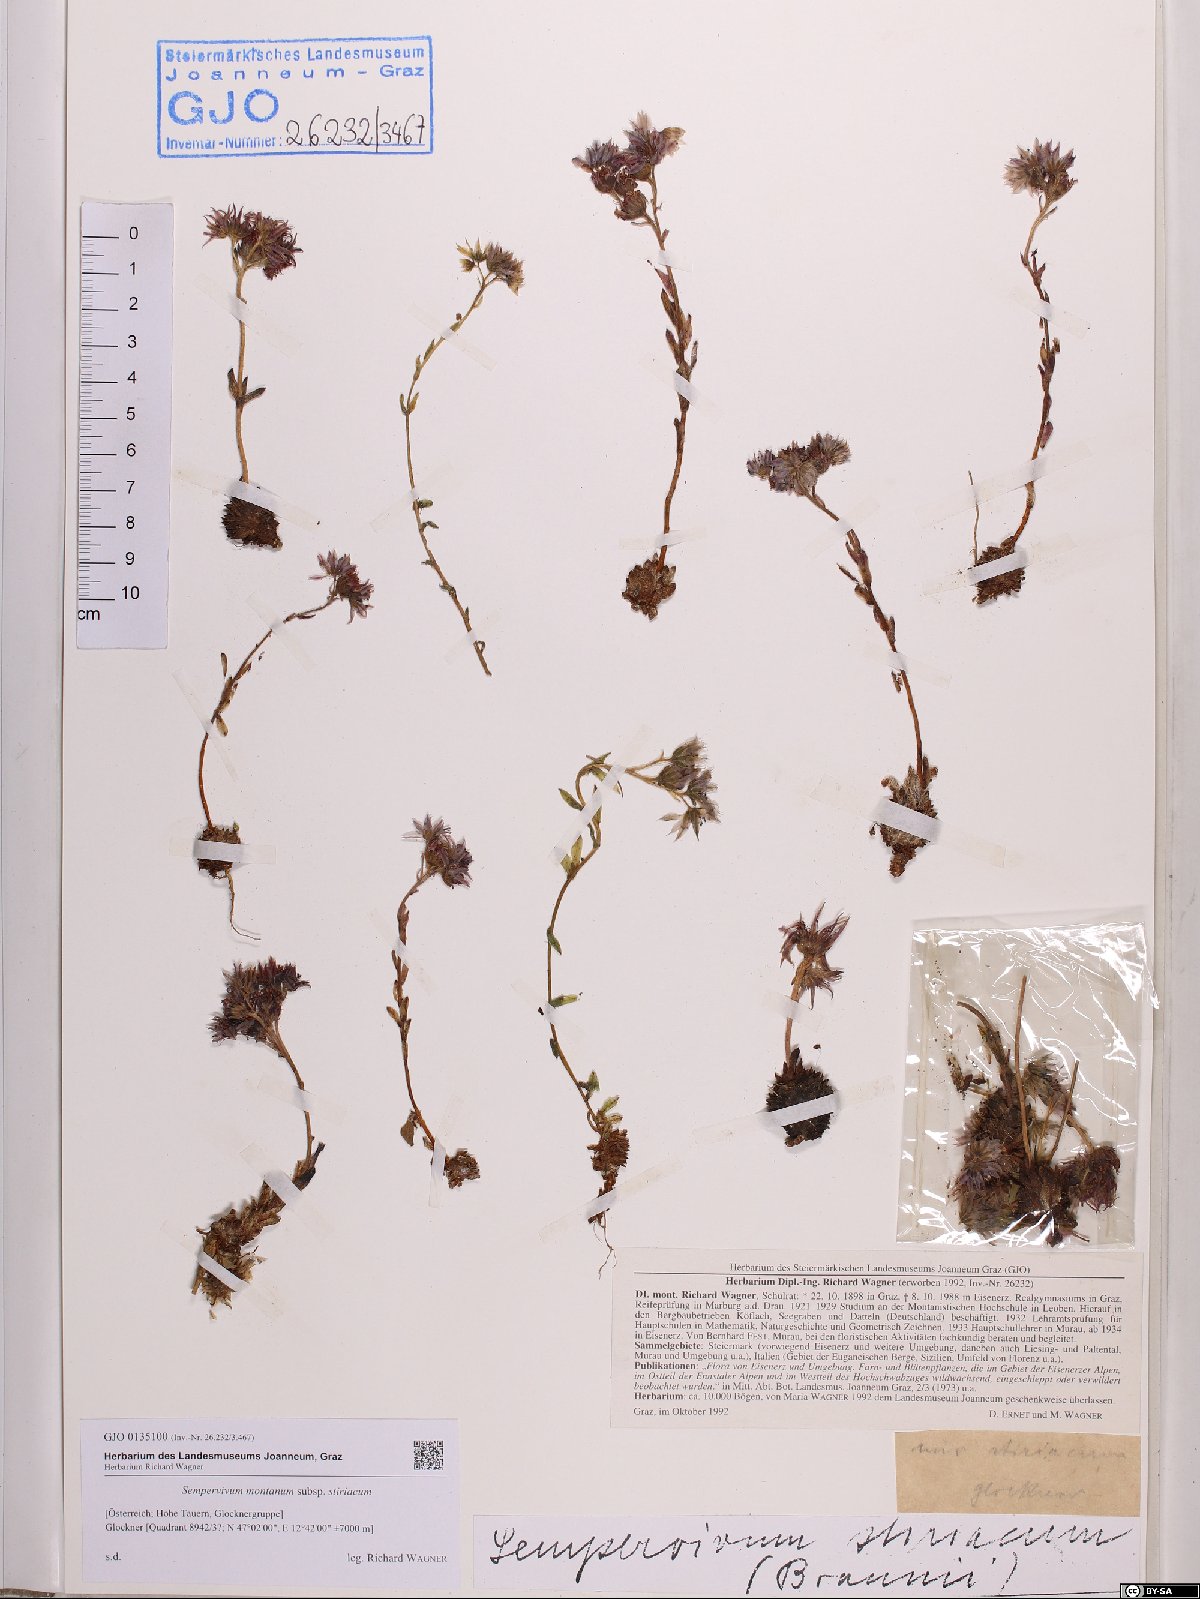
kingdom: Plantae
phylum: Tracheophyta
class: Magnoliopsida
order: Saxifragales
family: Crassulaceae
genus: Sempervivum
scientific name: Sempervivum montanum
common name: Mountain house-leek
